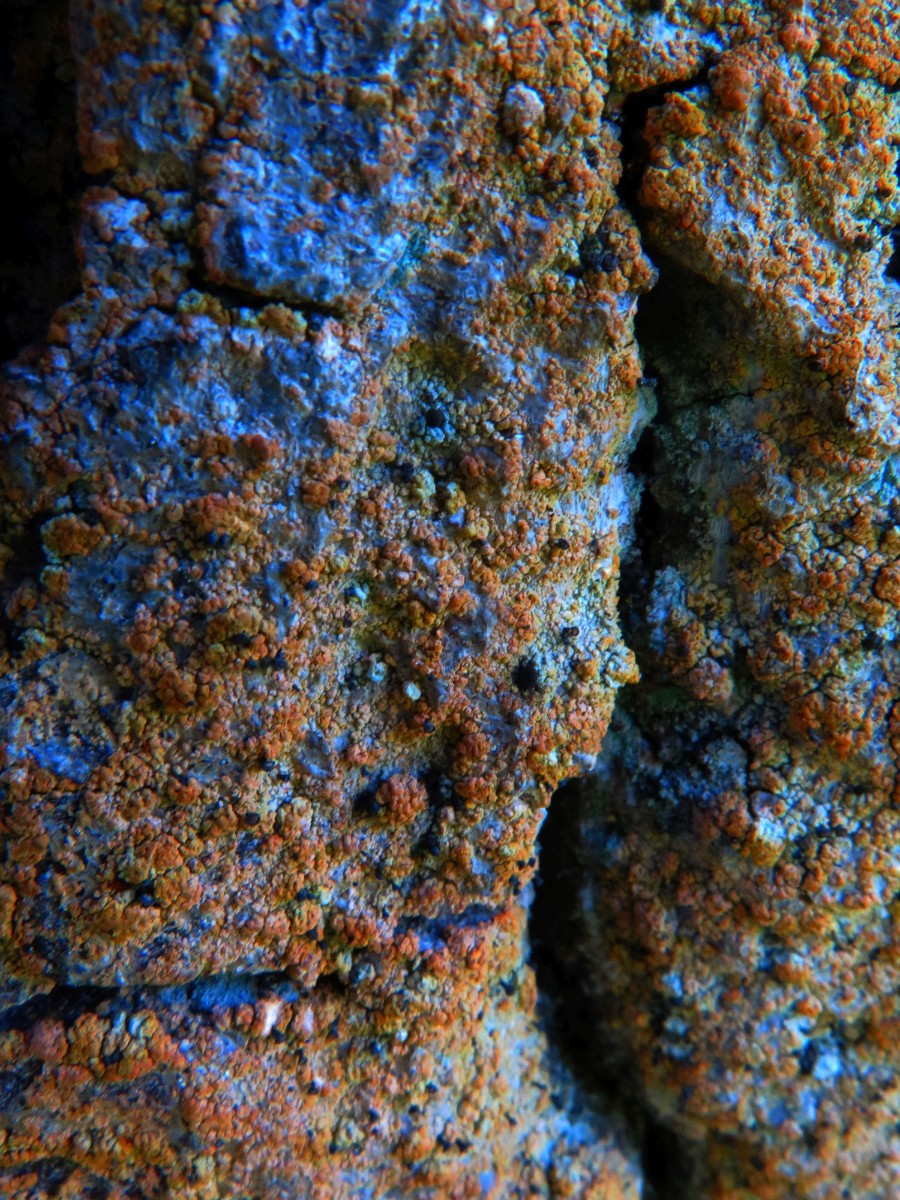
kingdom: Fungi
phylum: Ascomycota
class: Coniocybomycetes
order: Coniocybales
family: Coniocybaceae
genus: Chaenotheca
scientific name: Chaenotheca ferruginea
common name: rustbrun knappenålslav
